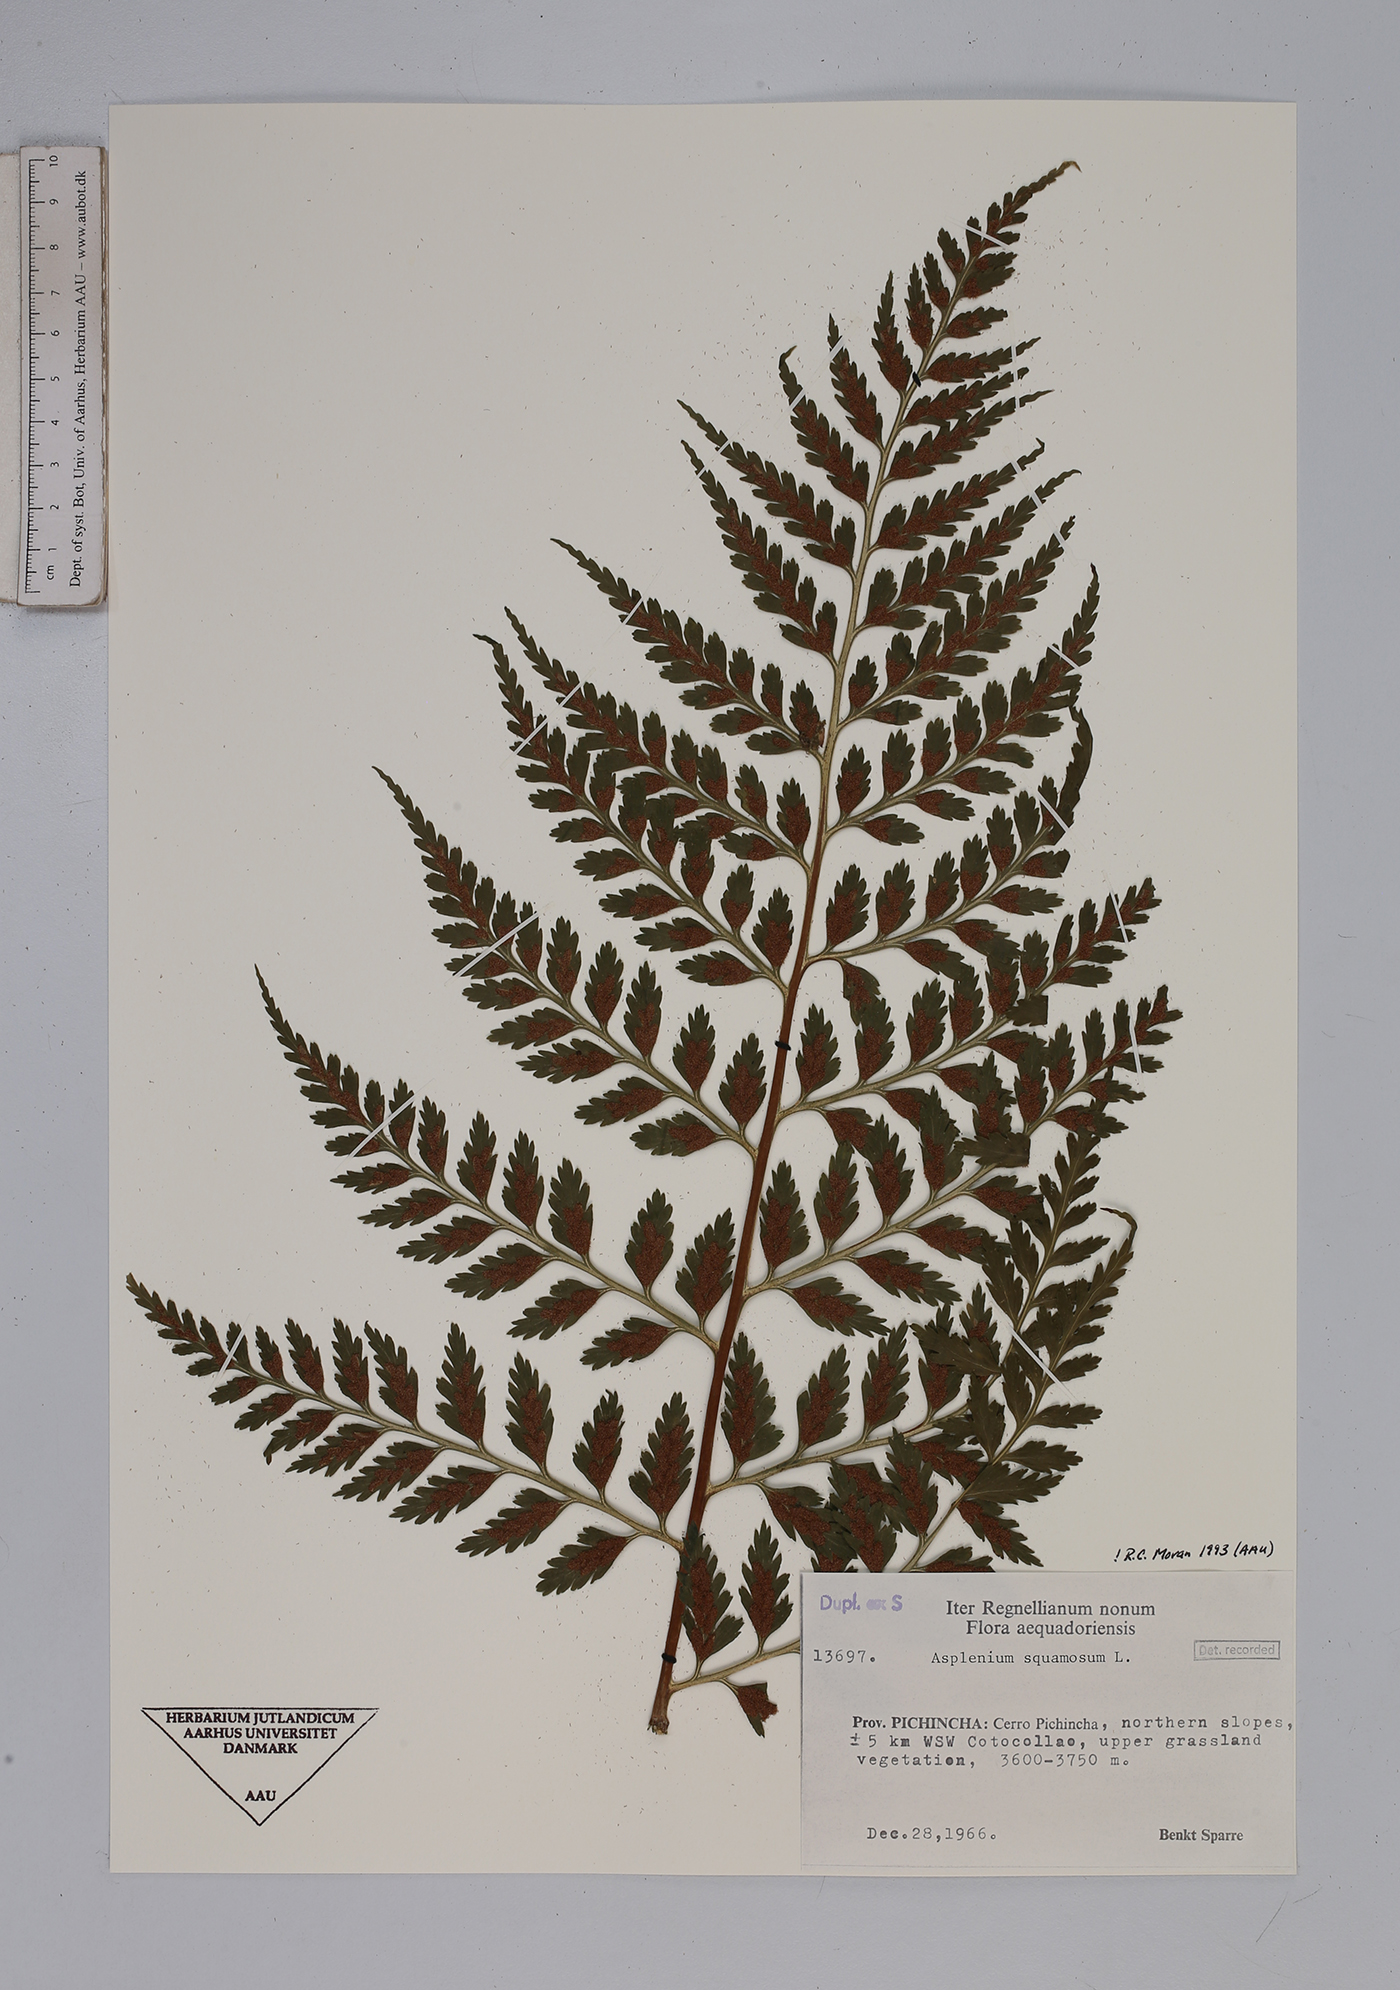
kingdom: Plantae
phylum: Tracheophyta
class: Polypodiopsida
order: Polypodiales
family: Aspleniaceae
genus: Asplenium
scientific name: Asplenium squamosum
